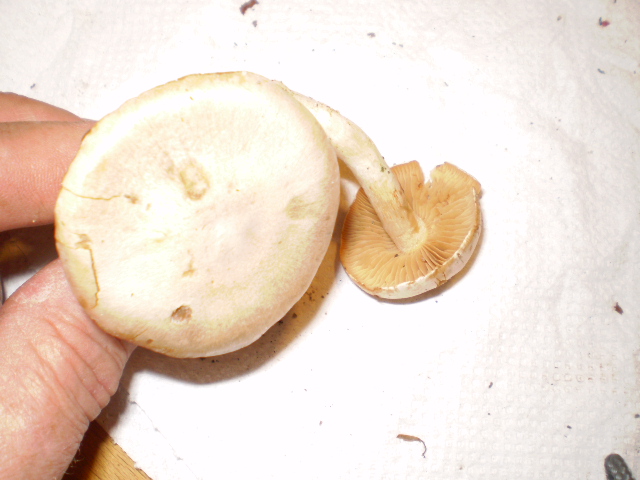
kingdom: Fungi
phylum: Basidiomycota
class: Agaricomycetes
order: Agaricales
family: Cortinariaceae
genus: Thaxterogaster
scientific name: Thaxterogaster leucoluteolus
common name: isabella slørhat
